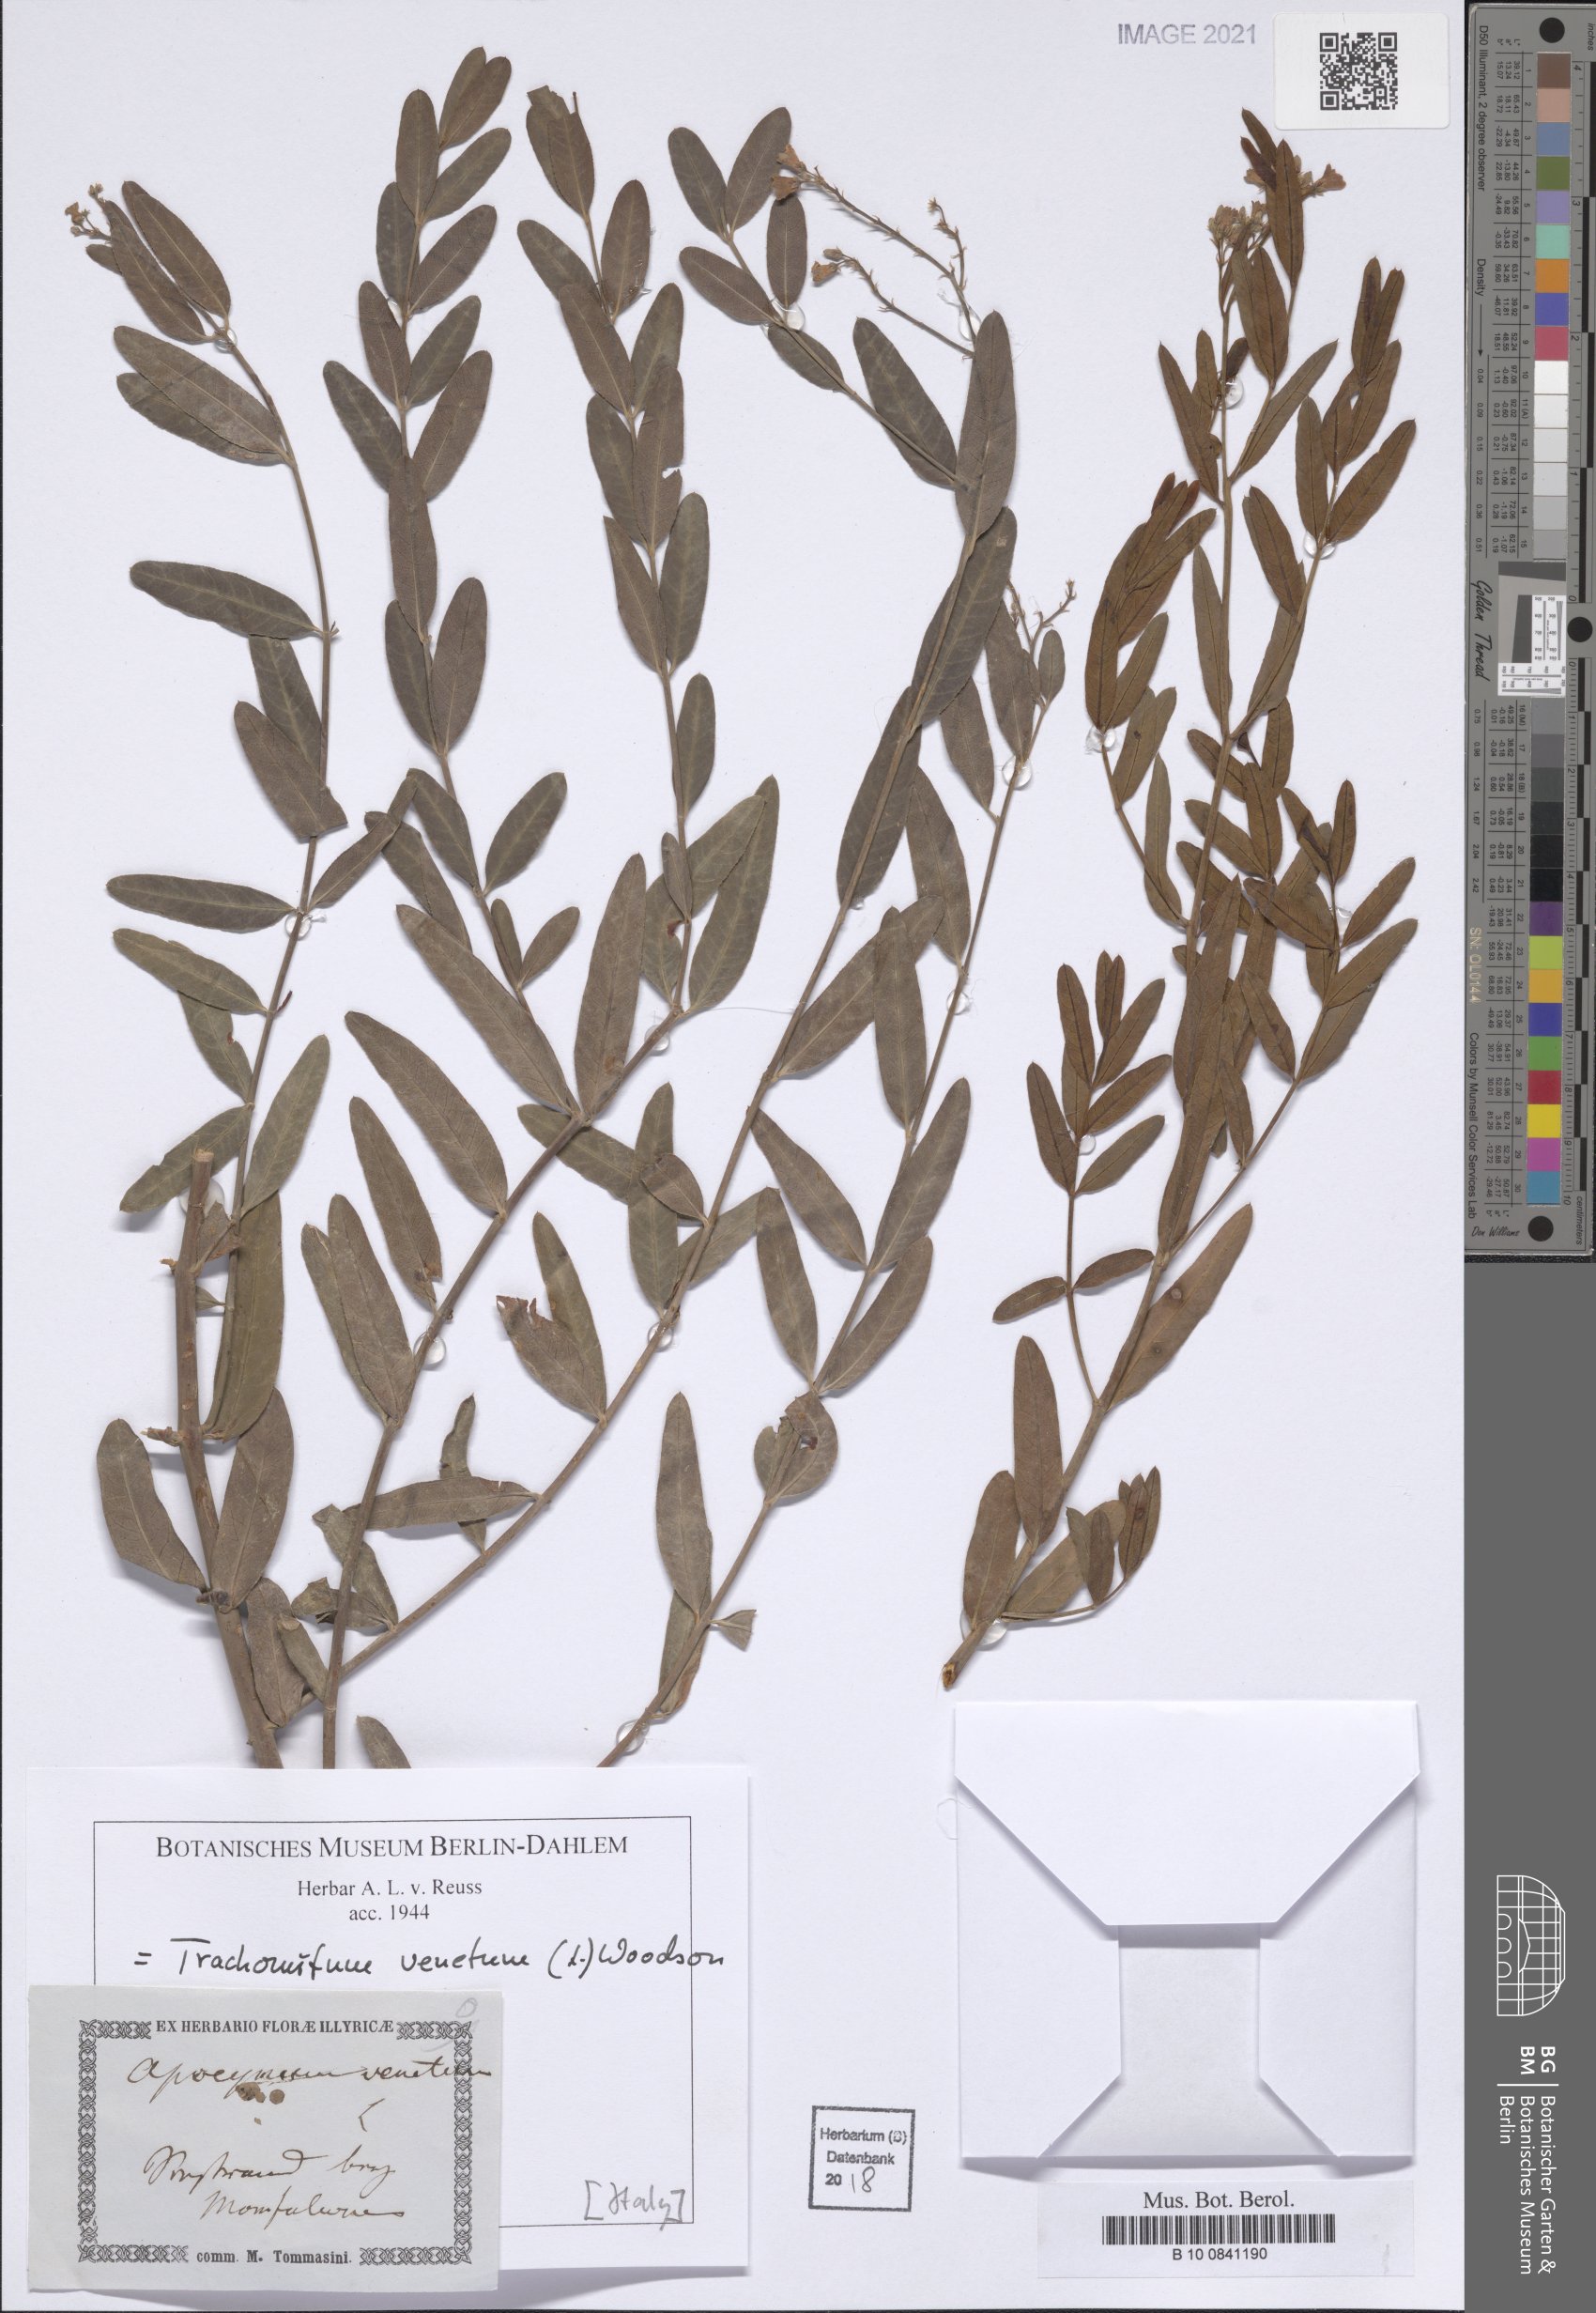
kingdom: Plantae
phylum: Tracheophyta
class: Magnoliopsida
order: Gentianales
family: Apocynaceae
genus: Poacynum
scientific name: Poacynum venetum
